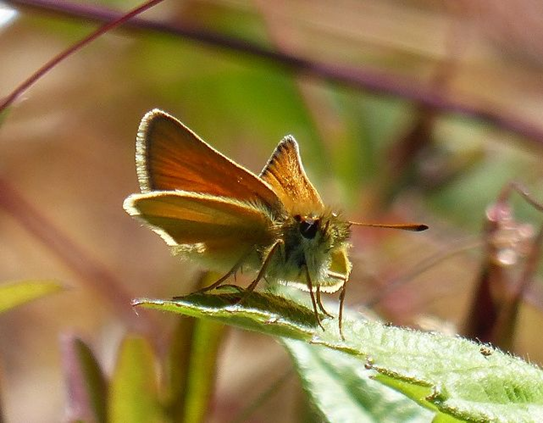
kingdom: Animalia
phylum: Arthropoda
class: Insecta
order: Lepidoptera
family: Hesperiidae
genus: Thymelicus
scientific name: Thymelicus lineola
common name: European Skipper
